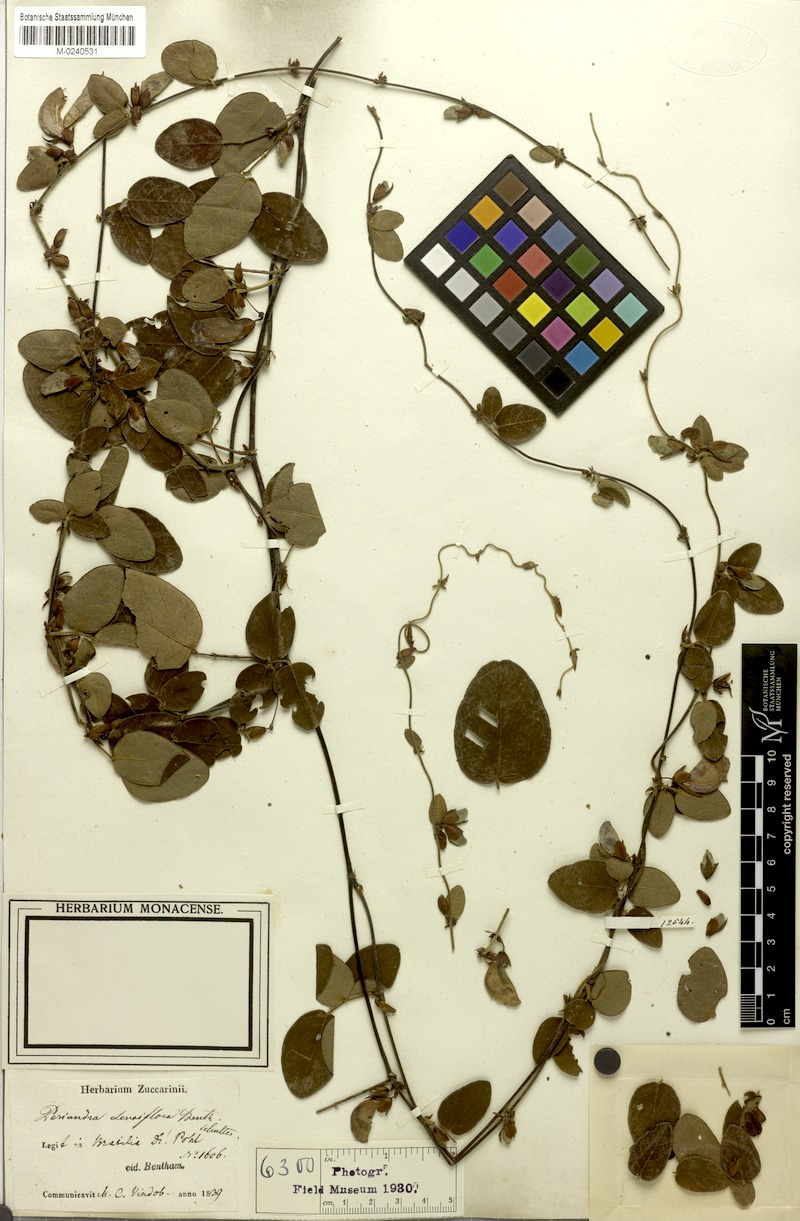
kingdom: Plantae
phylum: Tracheophyta
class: Magnoliopsida
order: Fabales
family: Fabaceae
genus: Periandra
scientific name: Periandra densiflora
